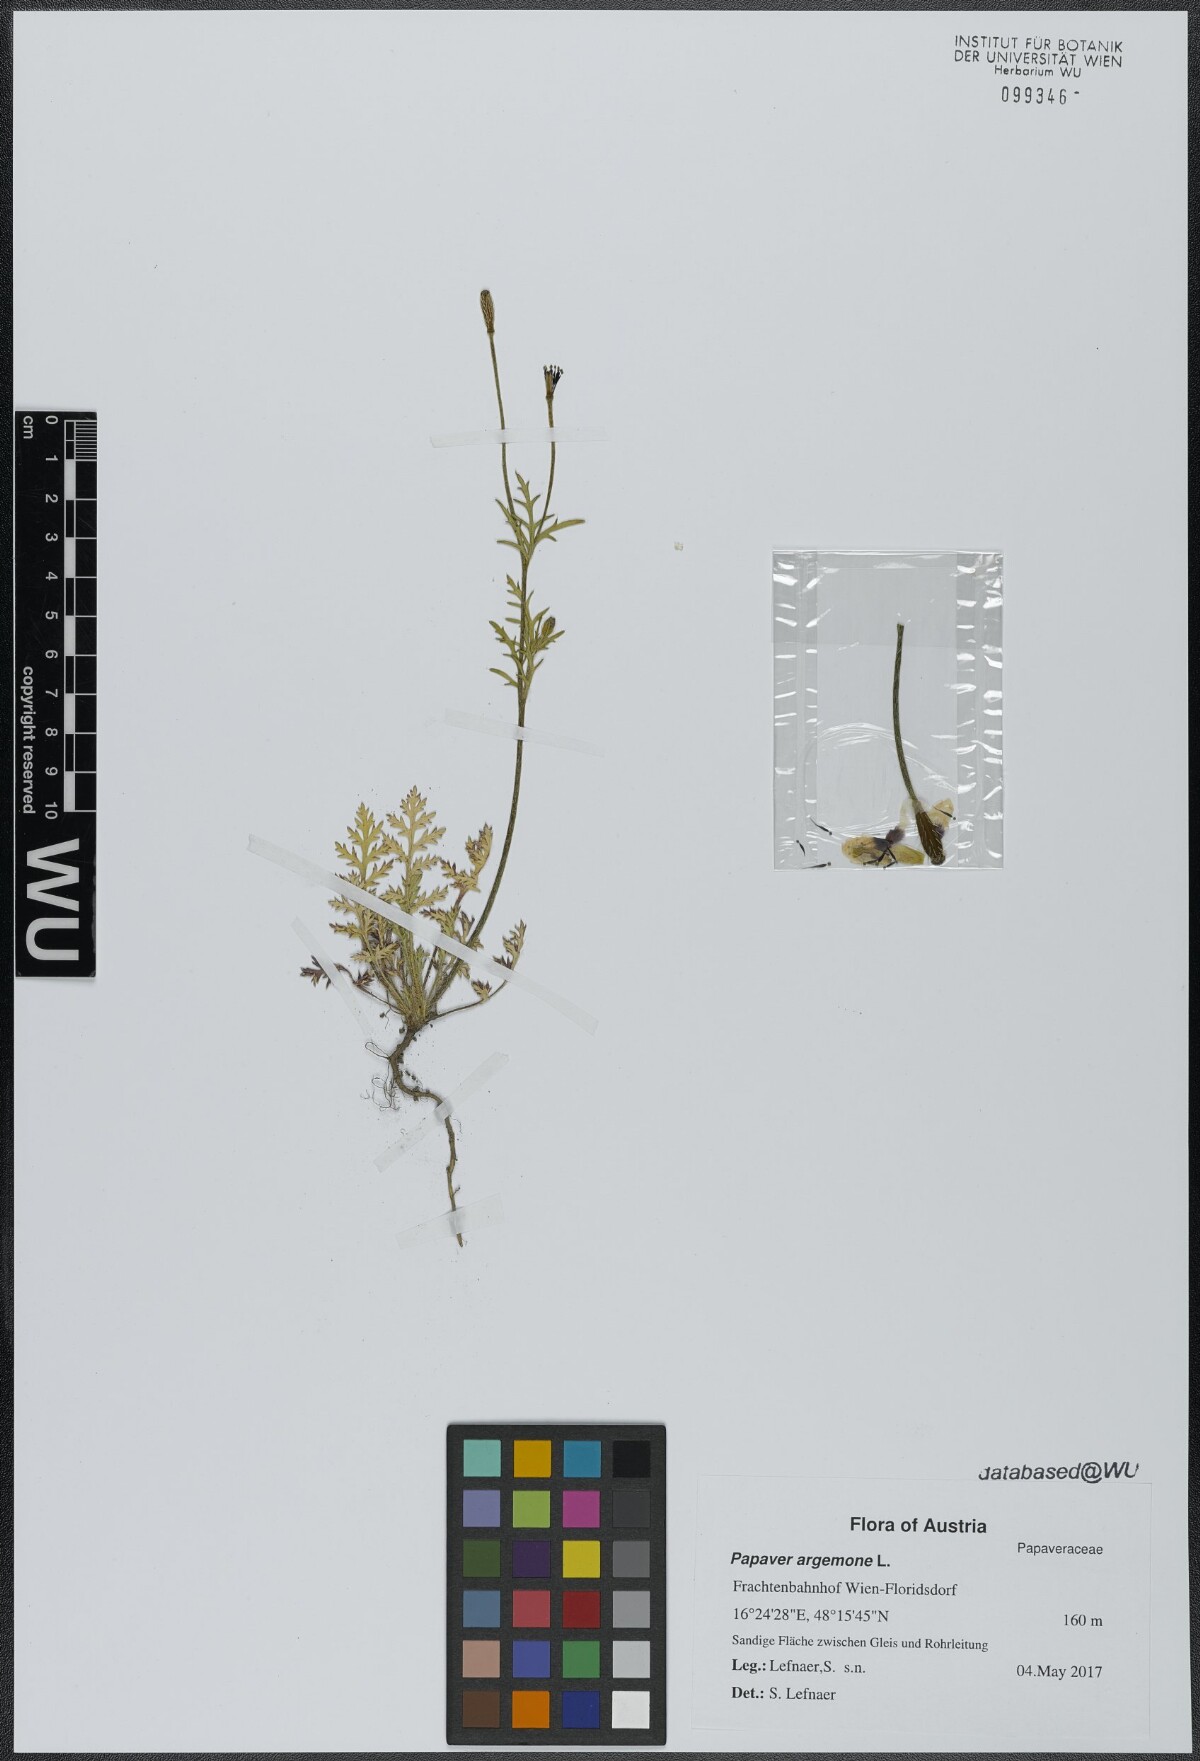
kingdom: Plantae
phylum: Tracheophyta
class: Magnoliopsida
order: Ranunculales
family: Papaveraceae
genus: Roemeria
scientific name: Roemeria argemone
